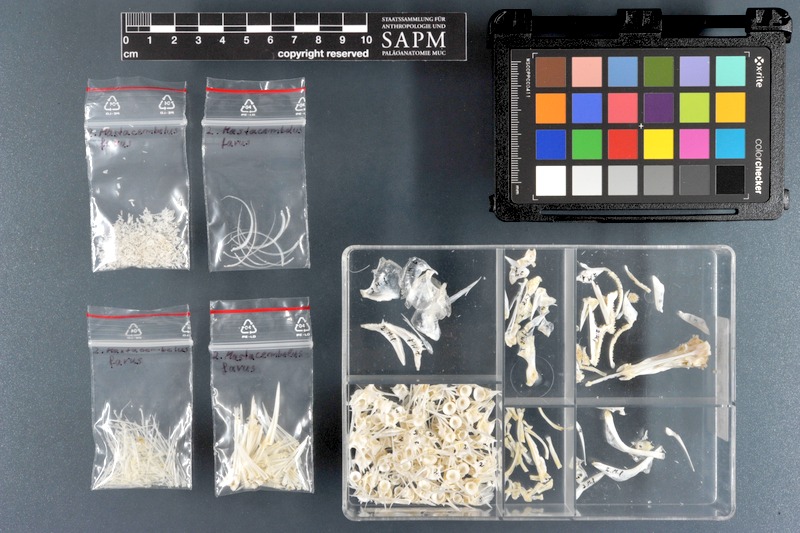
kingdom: Animalia
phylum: Chordata
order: Synbranchiformes
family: Mastacembelidae
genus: Mastacembelus
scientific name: Mastacembelus favus
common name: Flower spiny eel
